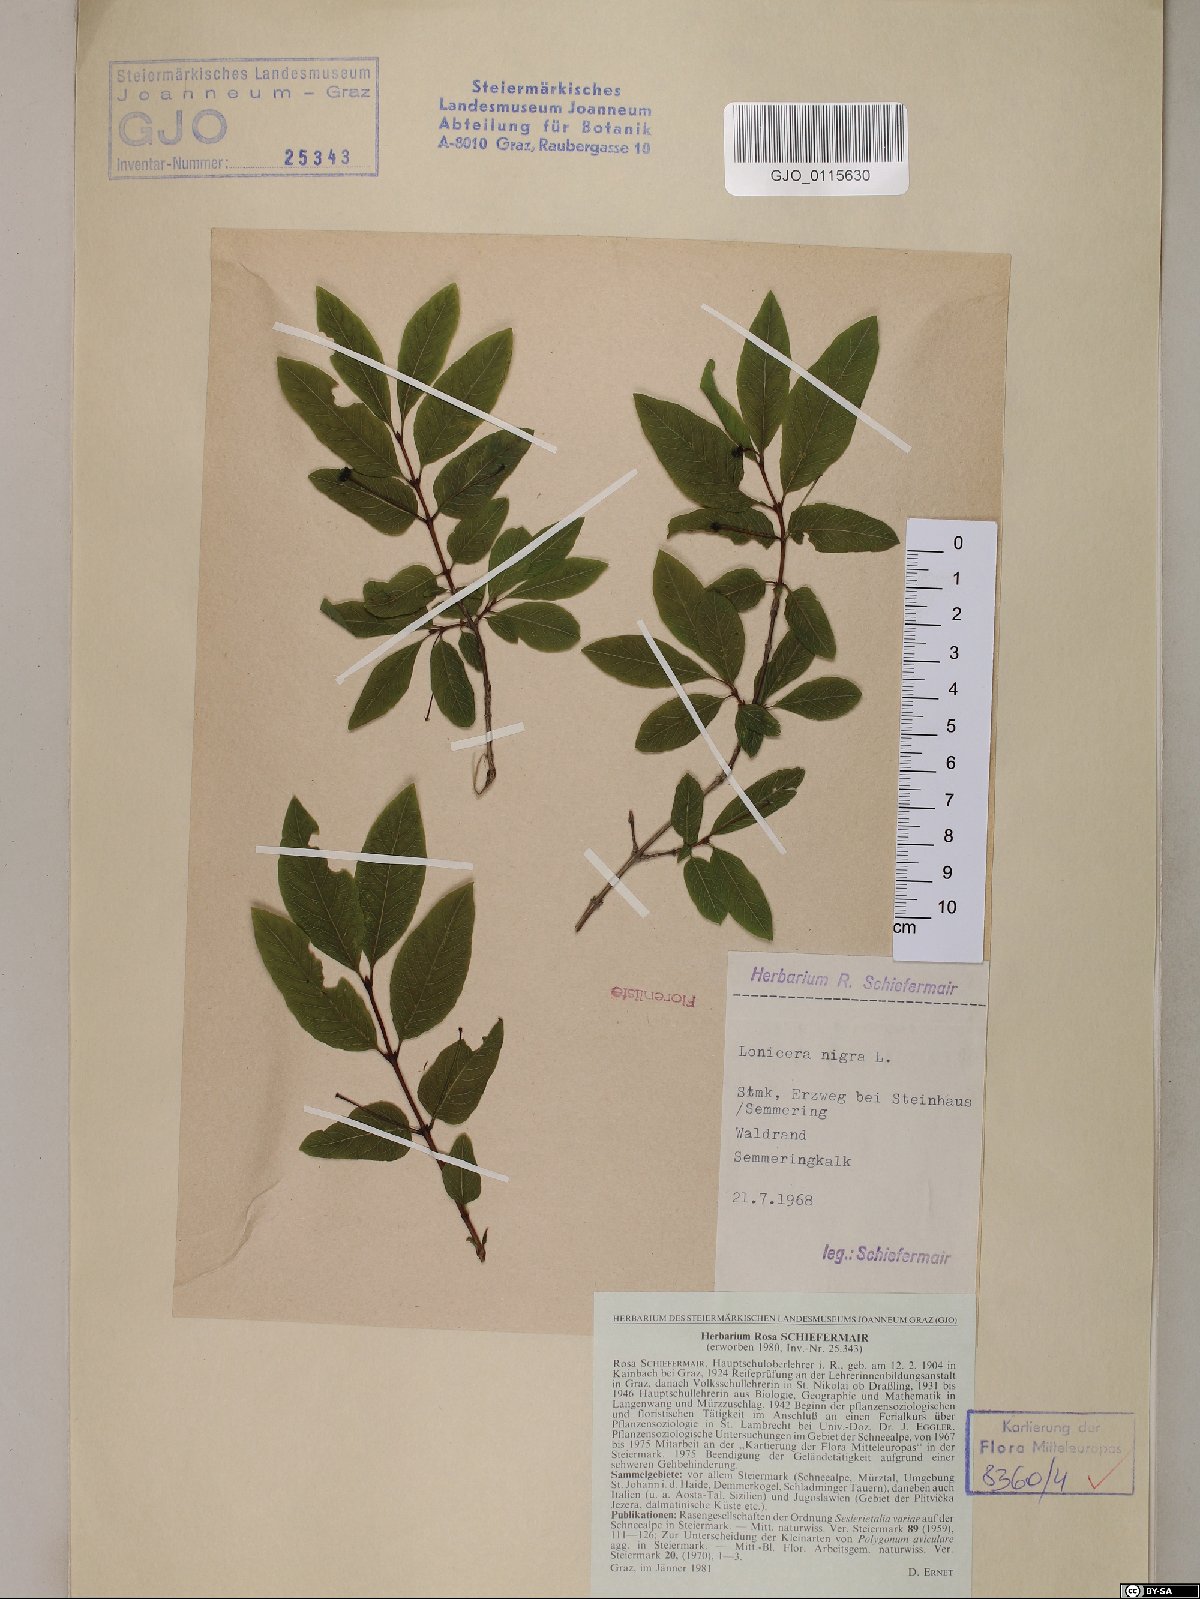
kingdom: Plantae
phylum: Tracheophyta
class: Magnoliopsida
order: Dipsacales
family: Caprifoliaceae
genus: Lonicera
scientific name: Lonicera nigra
